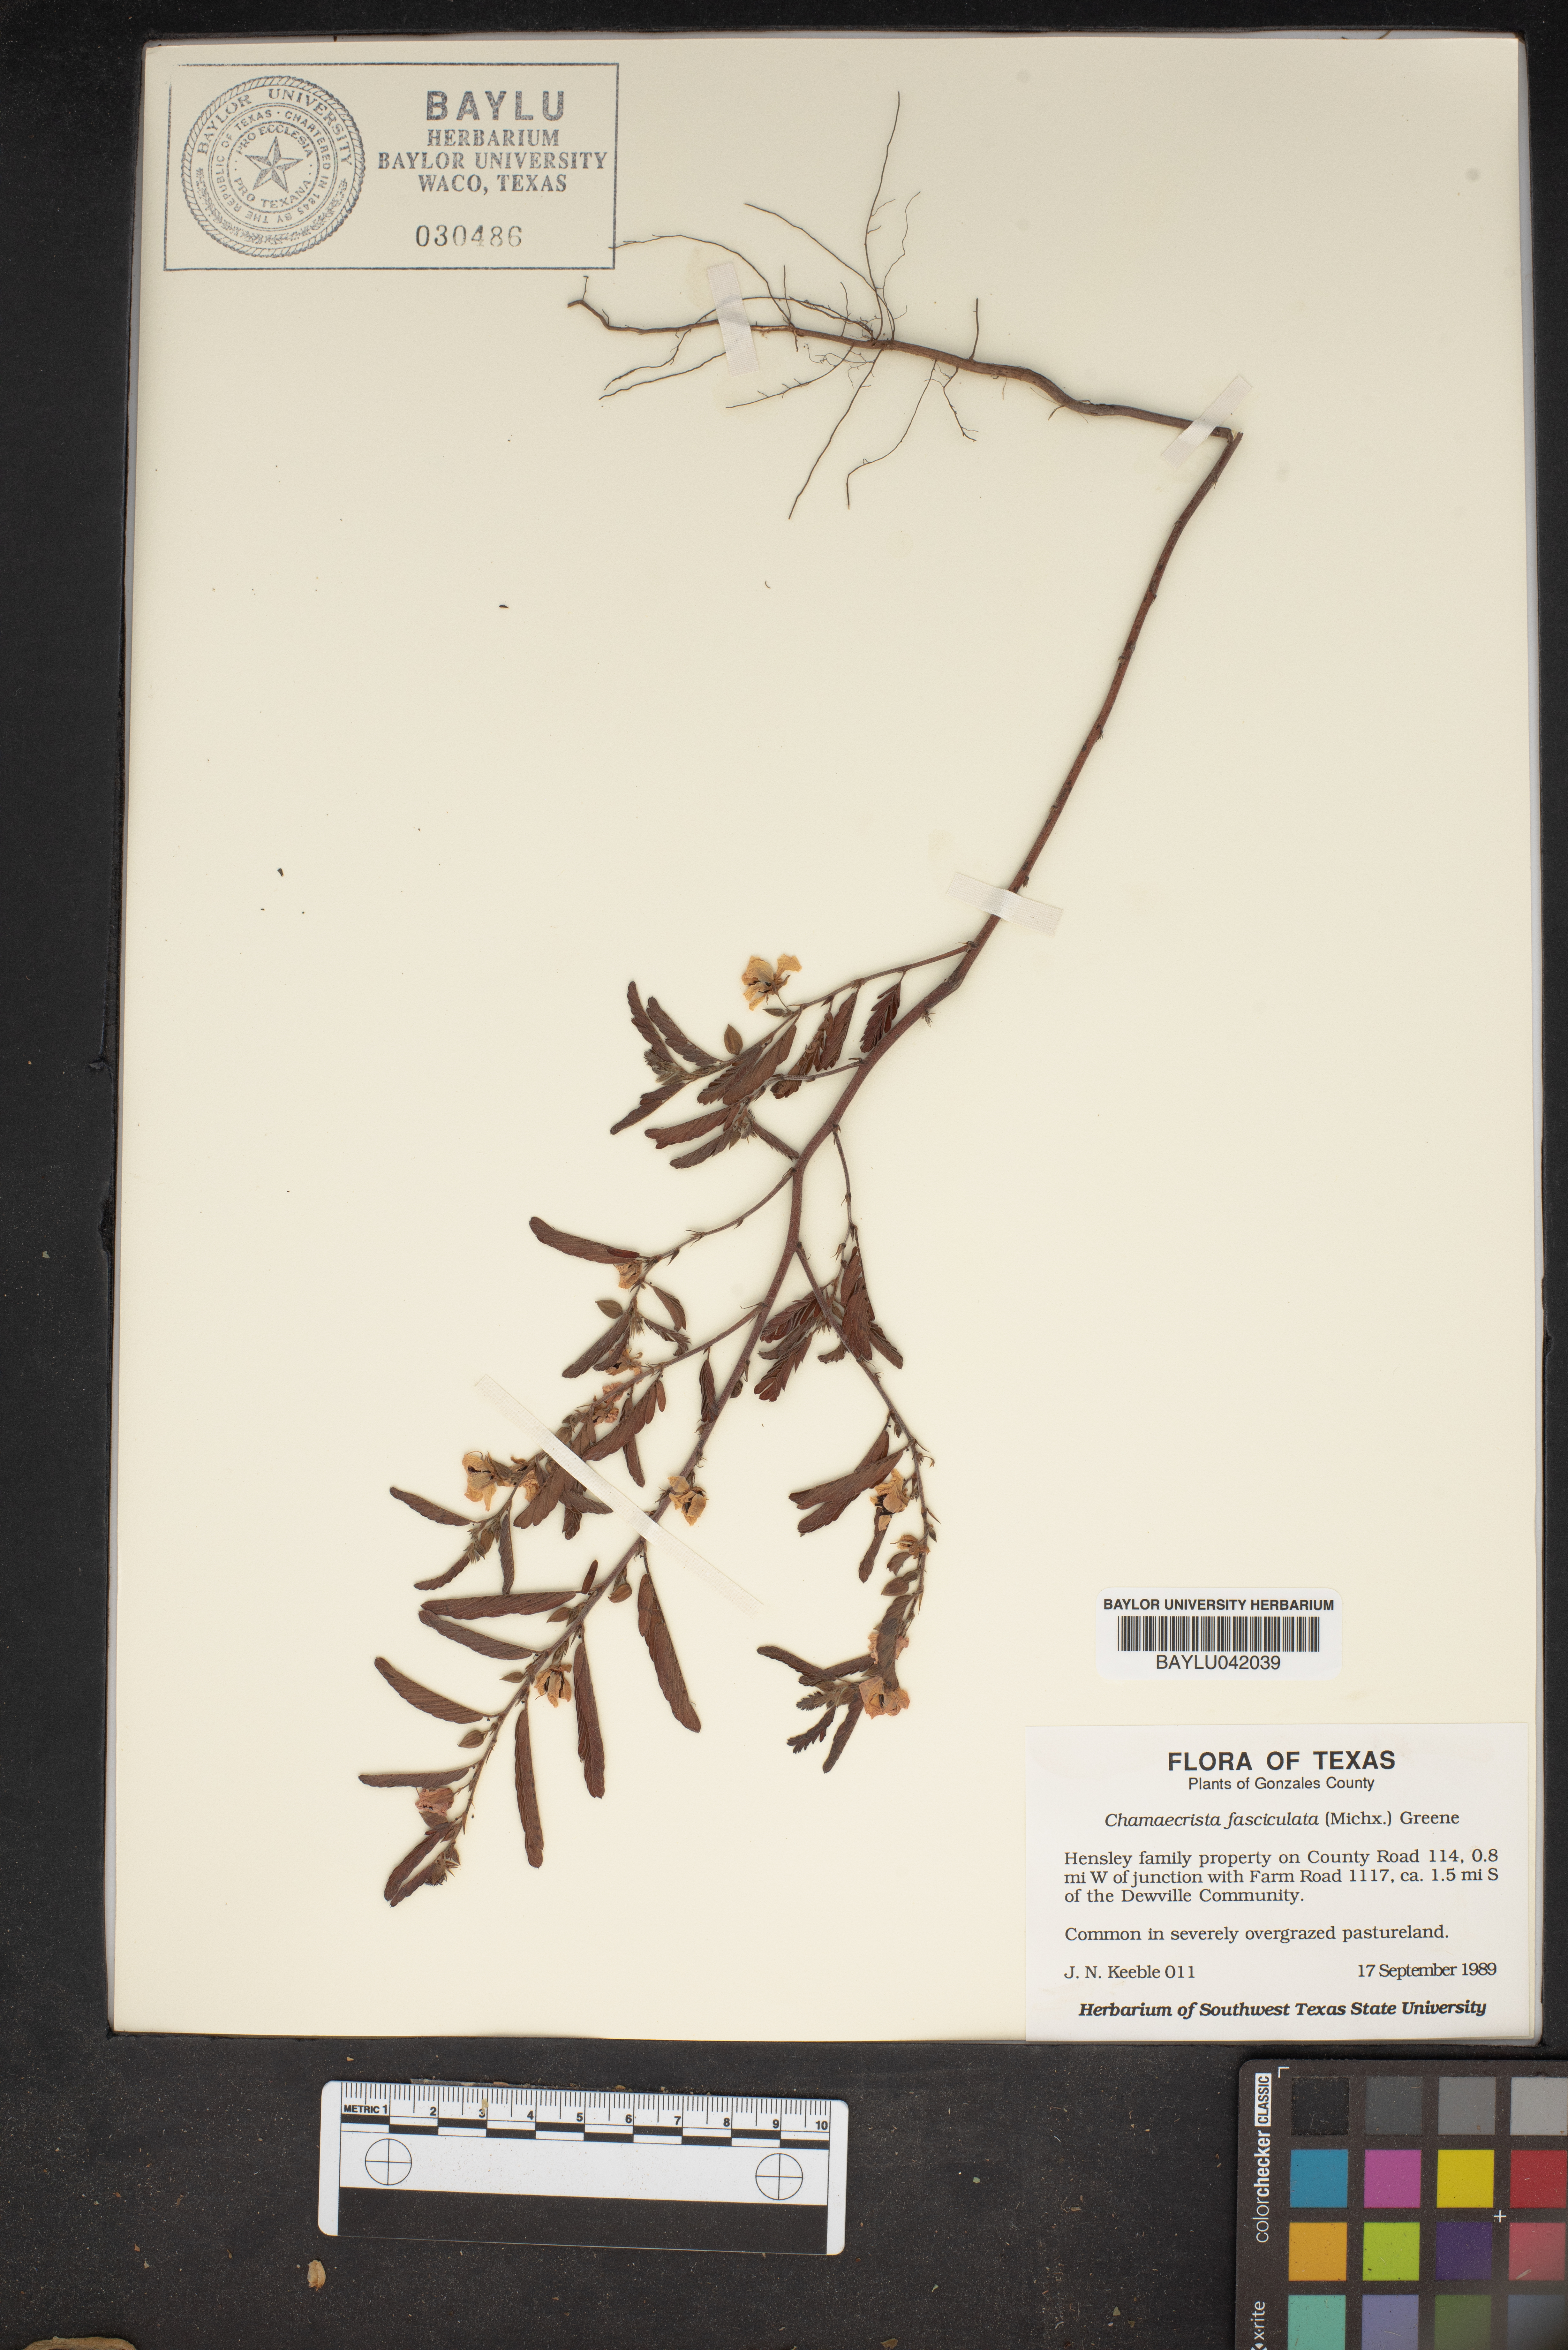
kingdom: Plantae
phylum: Tracheophyta
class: Magnoliopsida
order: Fabales
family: Fabaceae
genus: Chamaecrista
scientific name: Chamaecrista fasciculata
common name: Golden cassia
